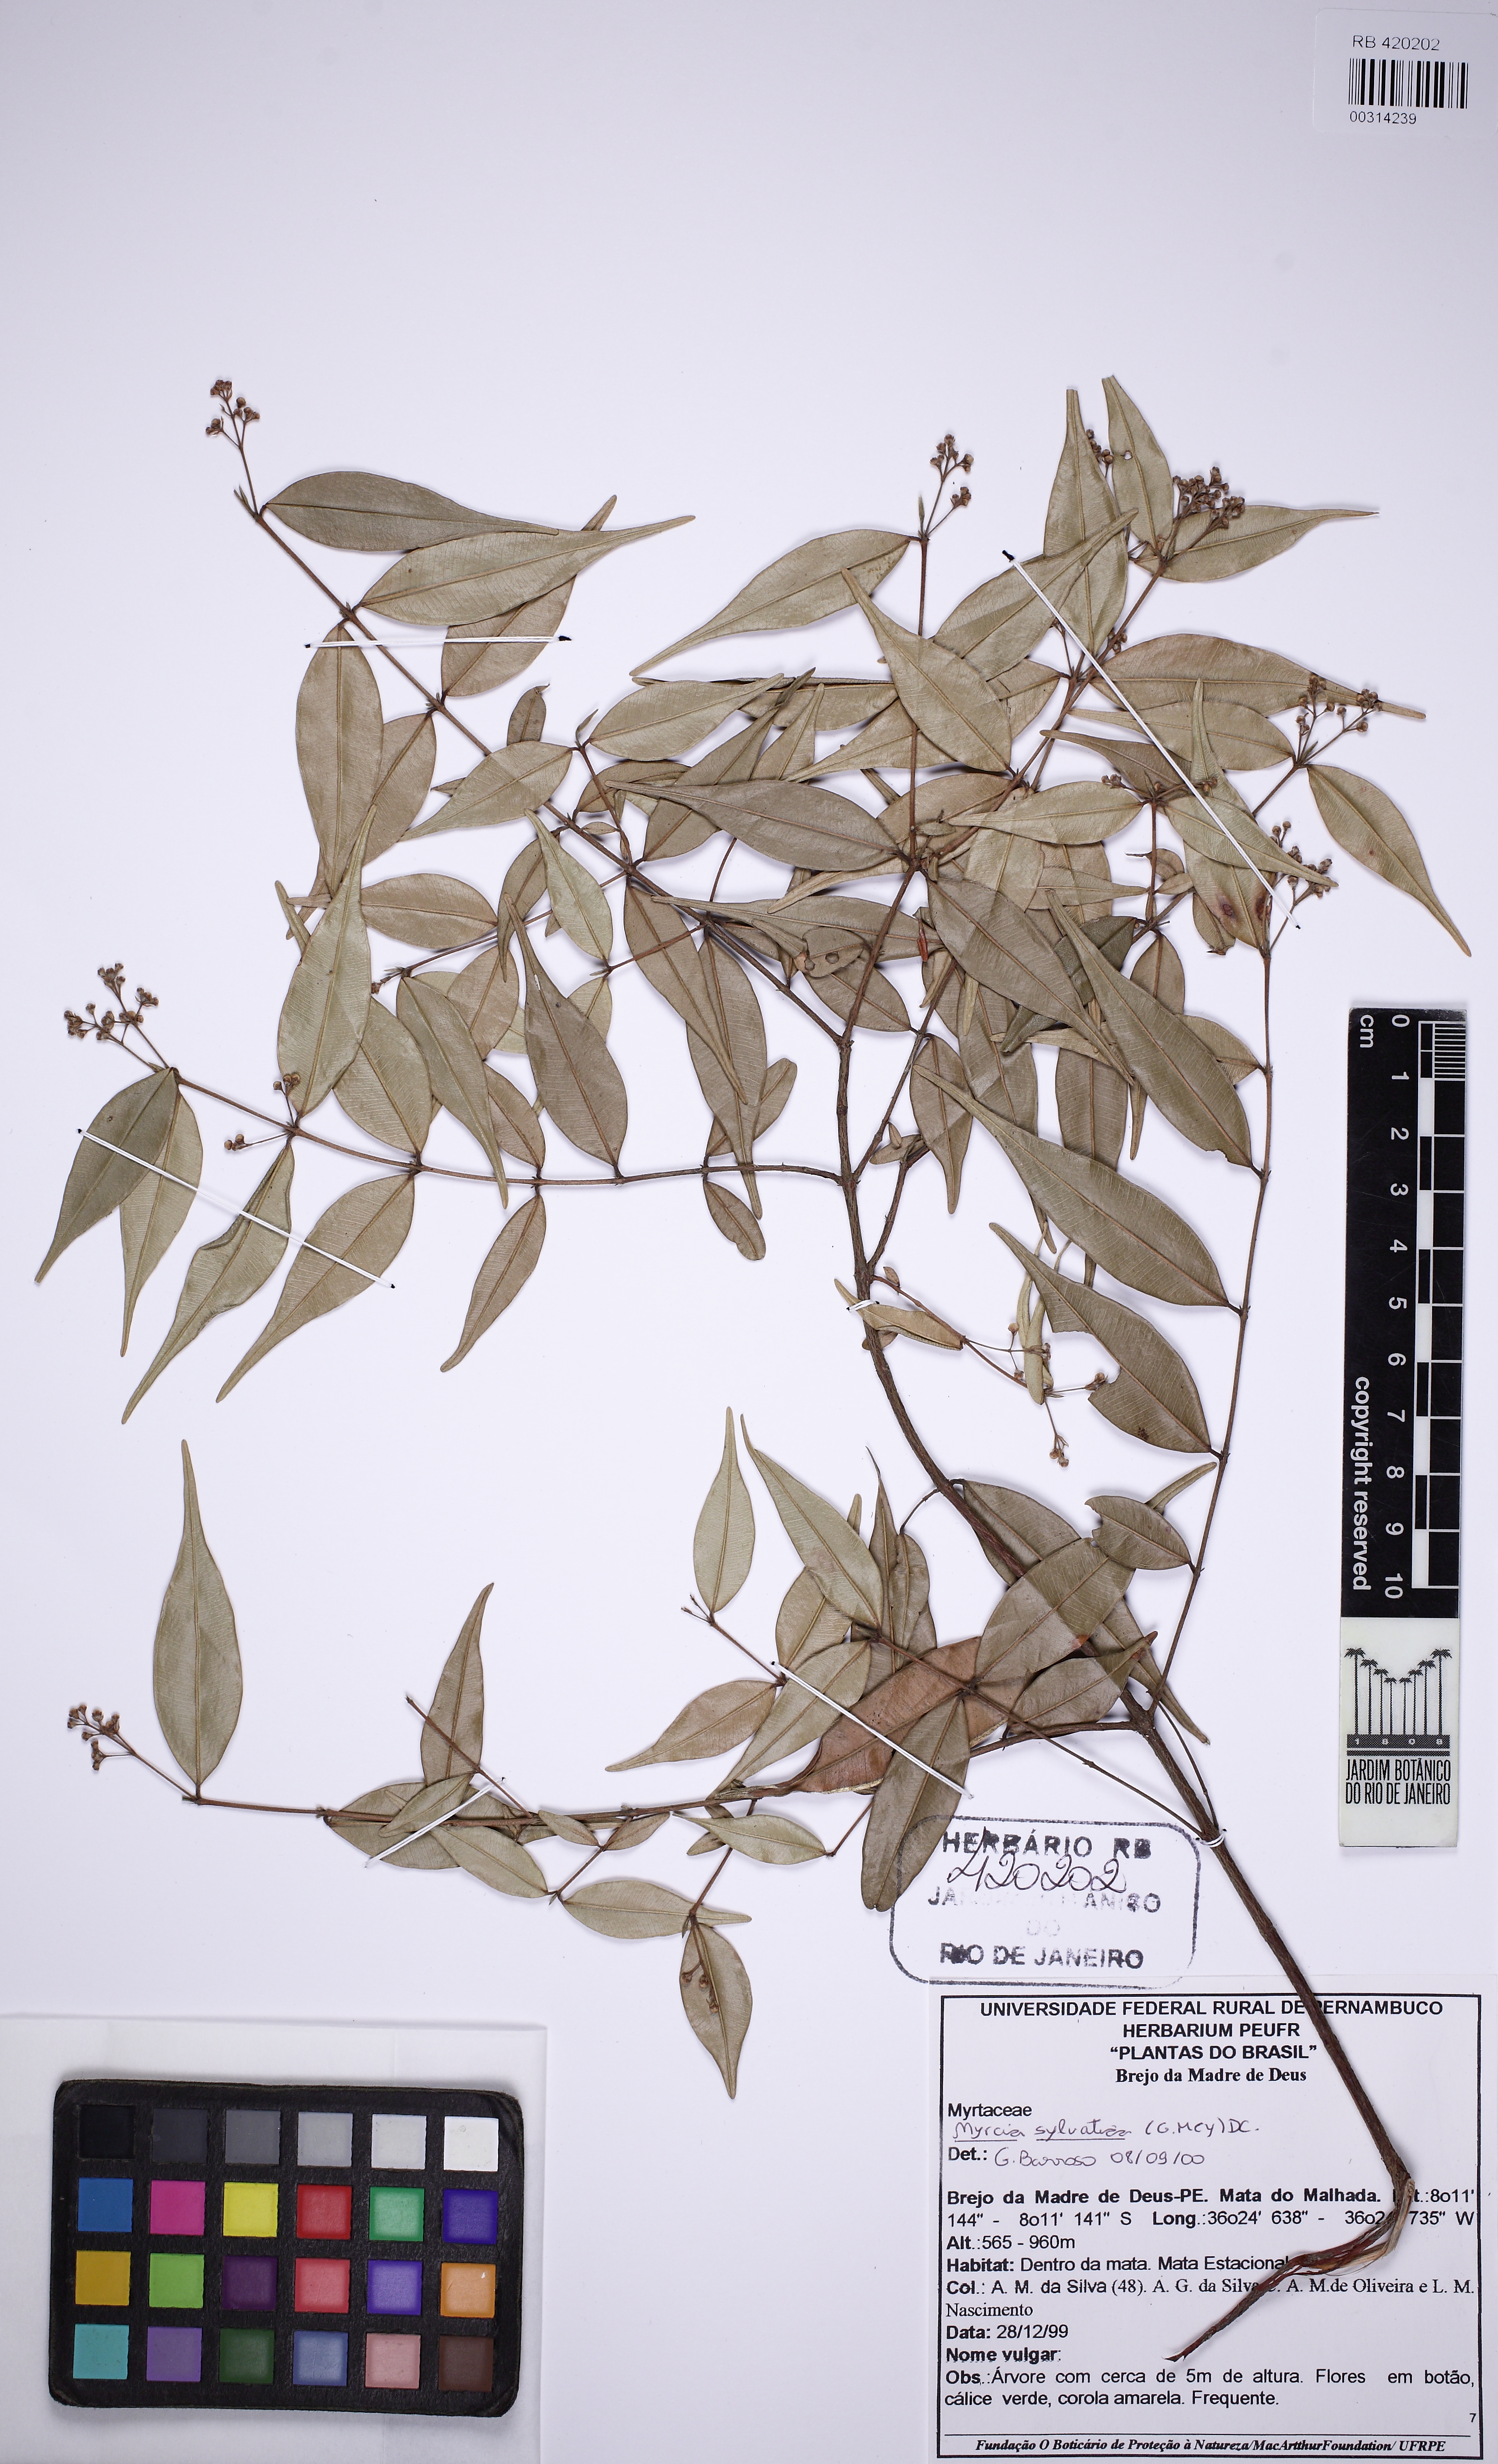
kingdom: Plantae
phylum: Tracheophyta
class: Magnoliopsida
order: Myrtales
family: Myrtaceae
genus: Myrcia
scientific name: Myrcia sylvatica
